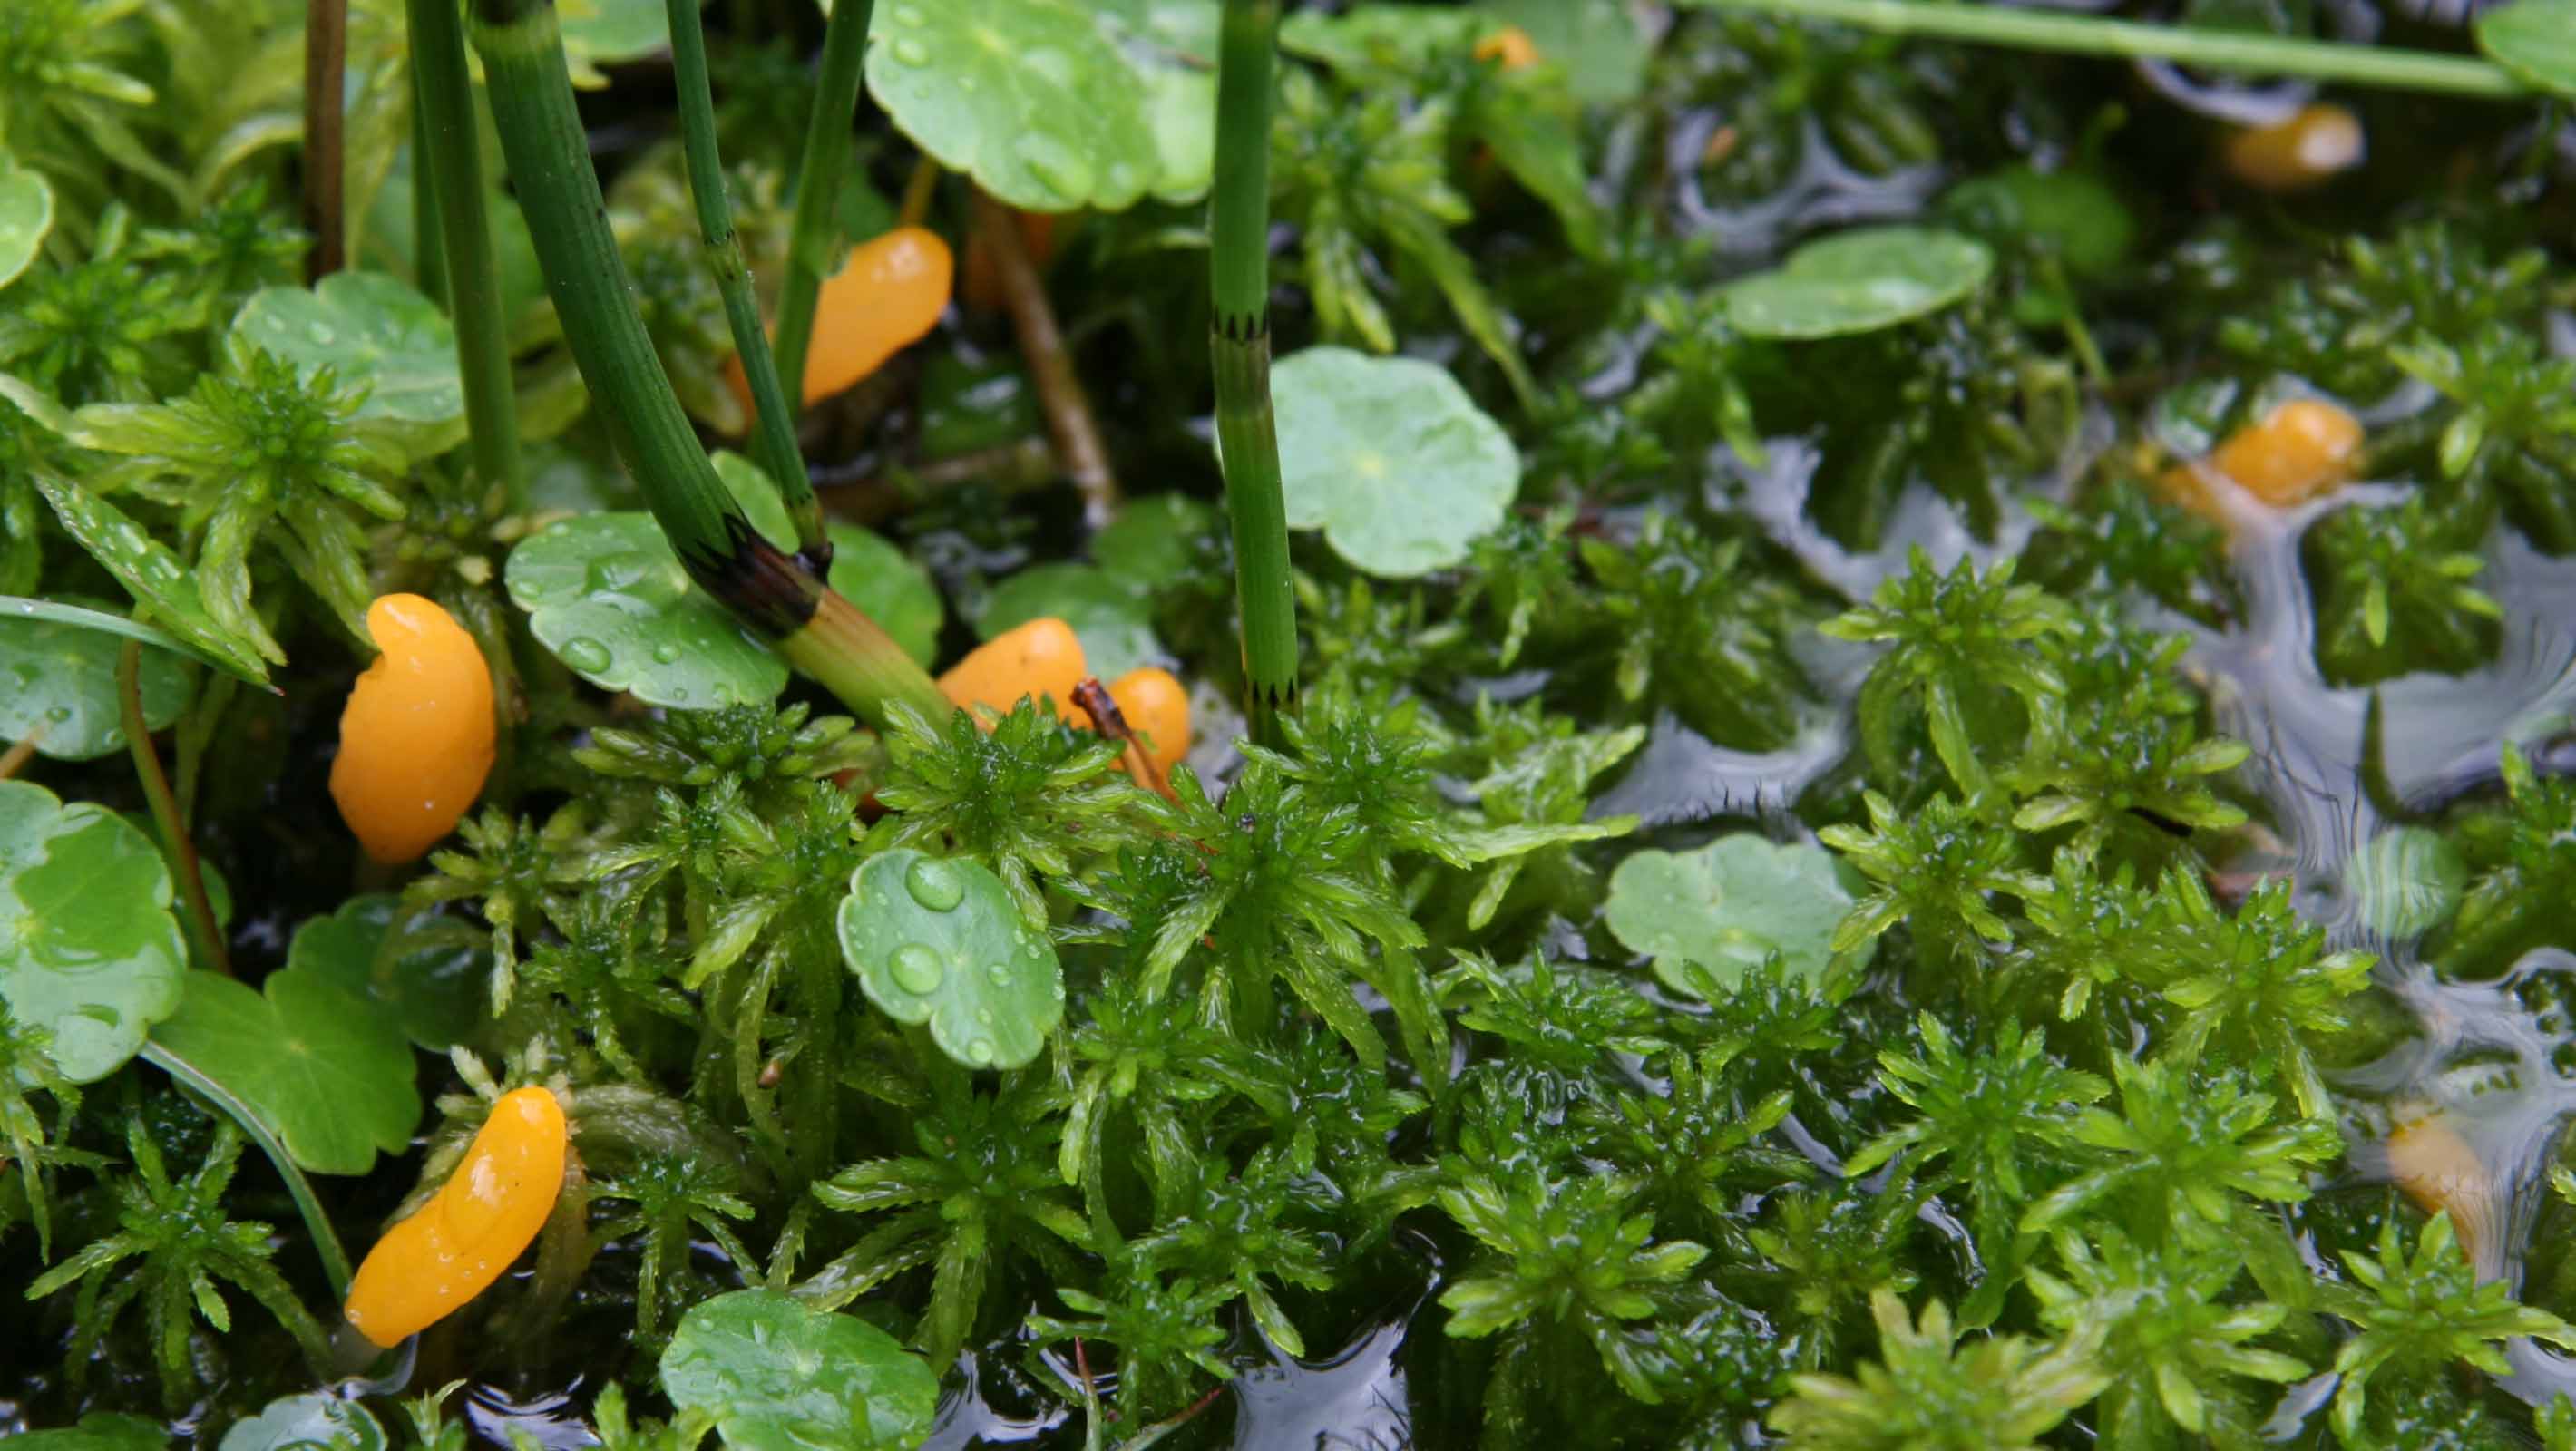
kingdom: Fungi
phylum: Ascomycota
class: Leotiomycetes
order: Helotiales
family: Cenangiaceae
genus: Mitrula
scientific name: Mitrula paludosa
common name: gul nøkketunge
